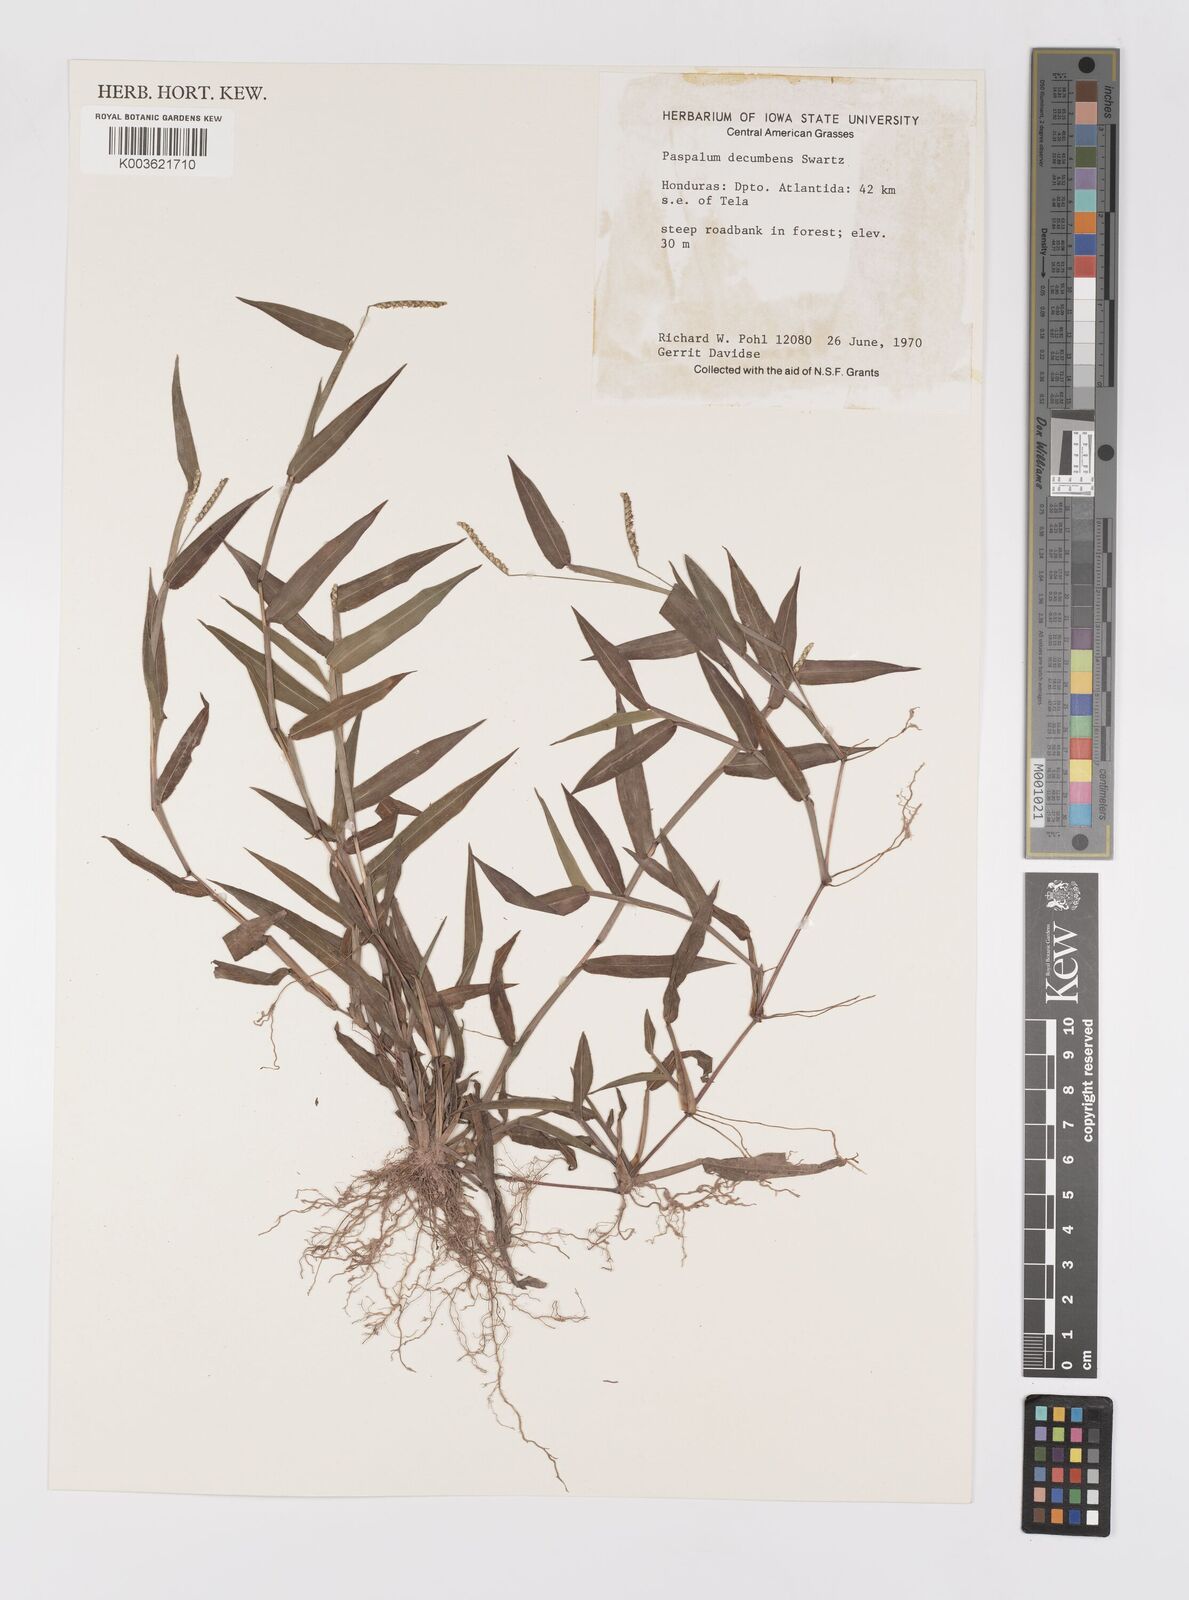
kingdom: Plantae
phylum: Tracheophyta
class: Liliopsida
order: Poales
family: Poaceae
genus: Paspalum
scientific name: Paspalum
